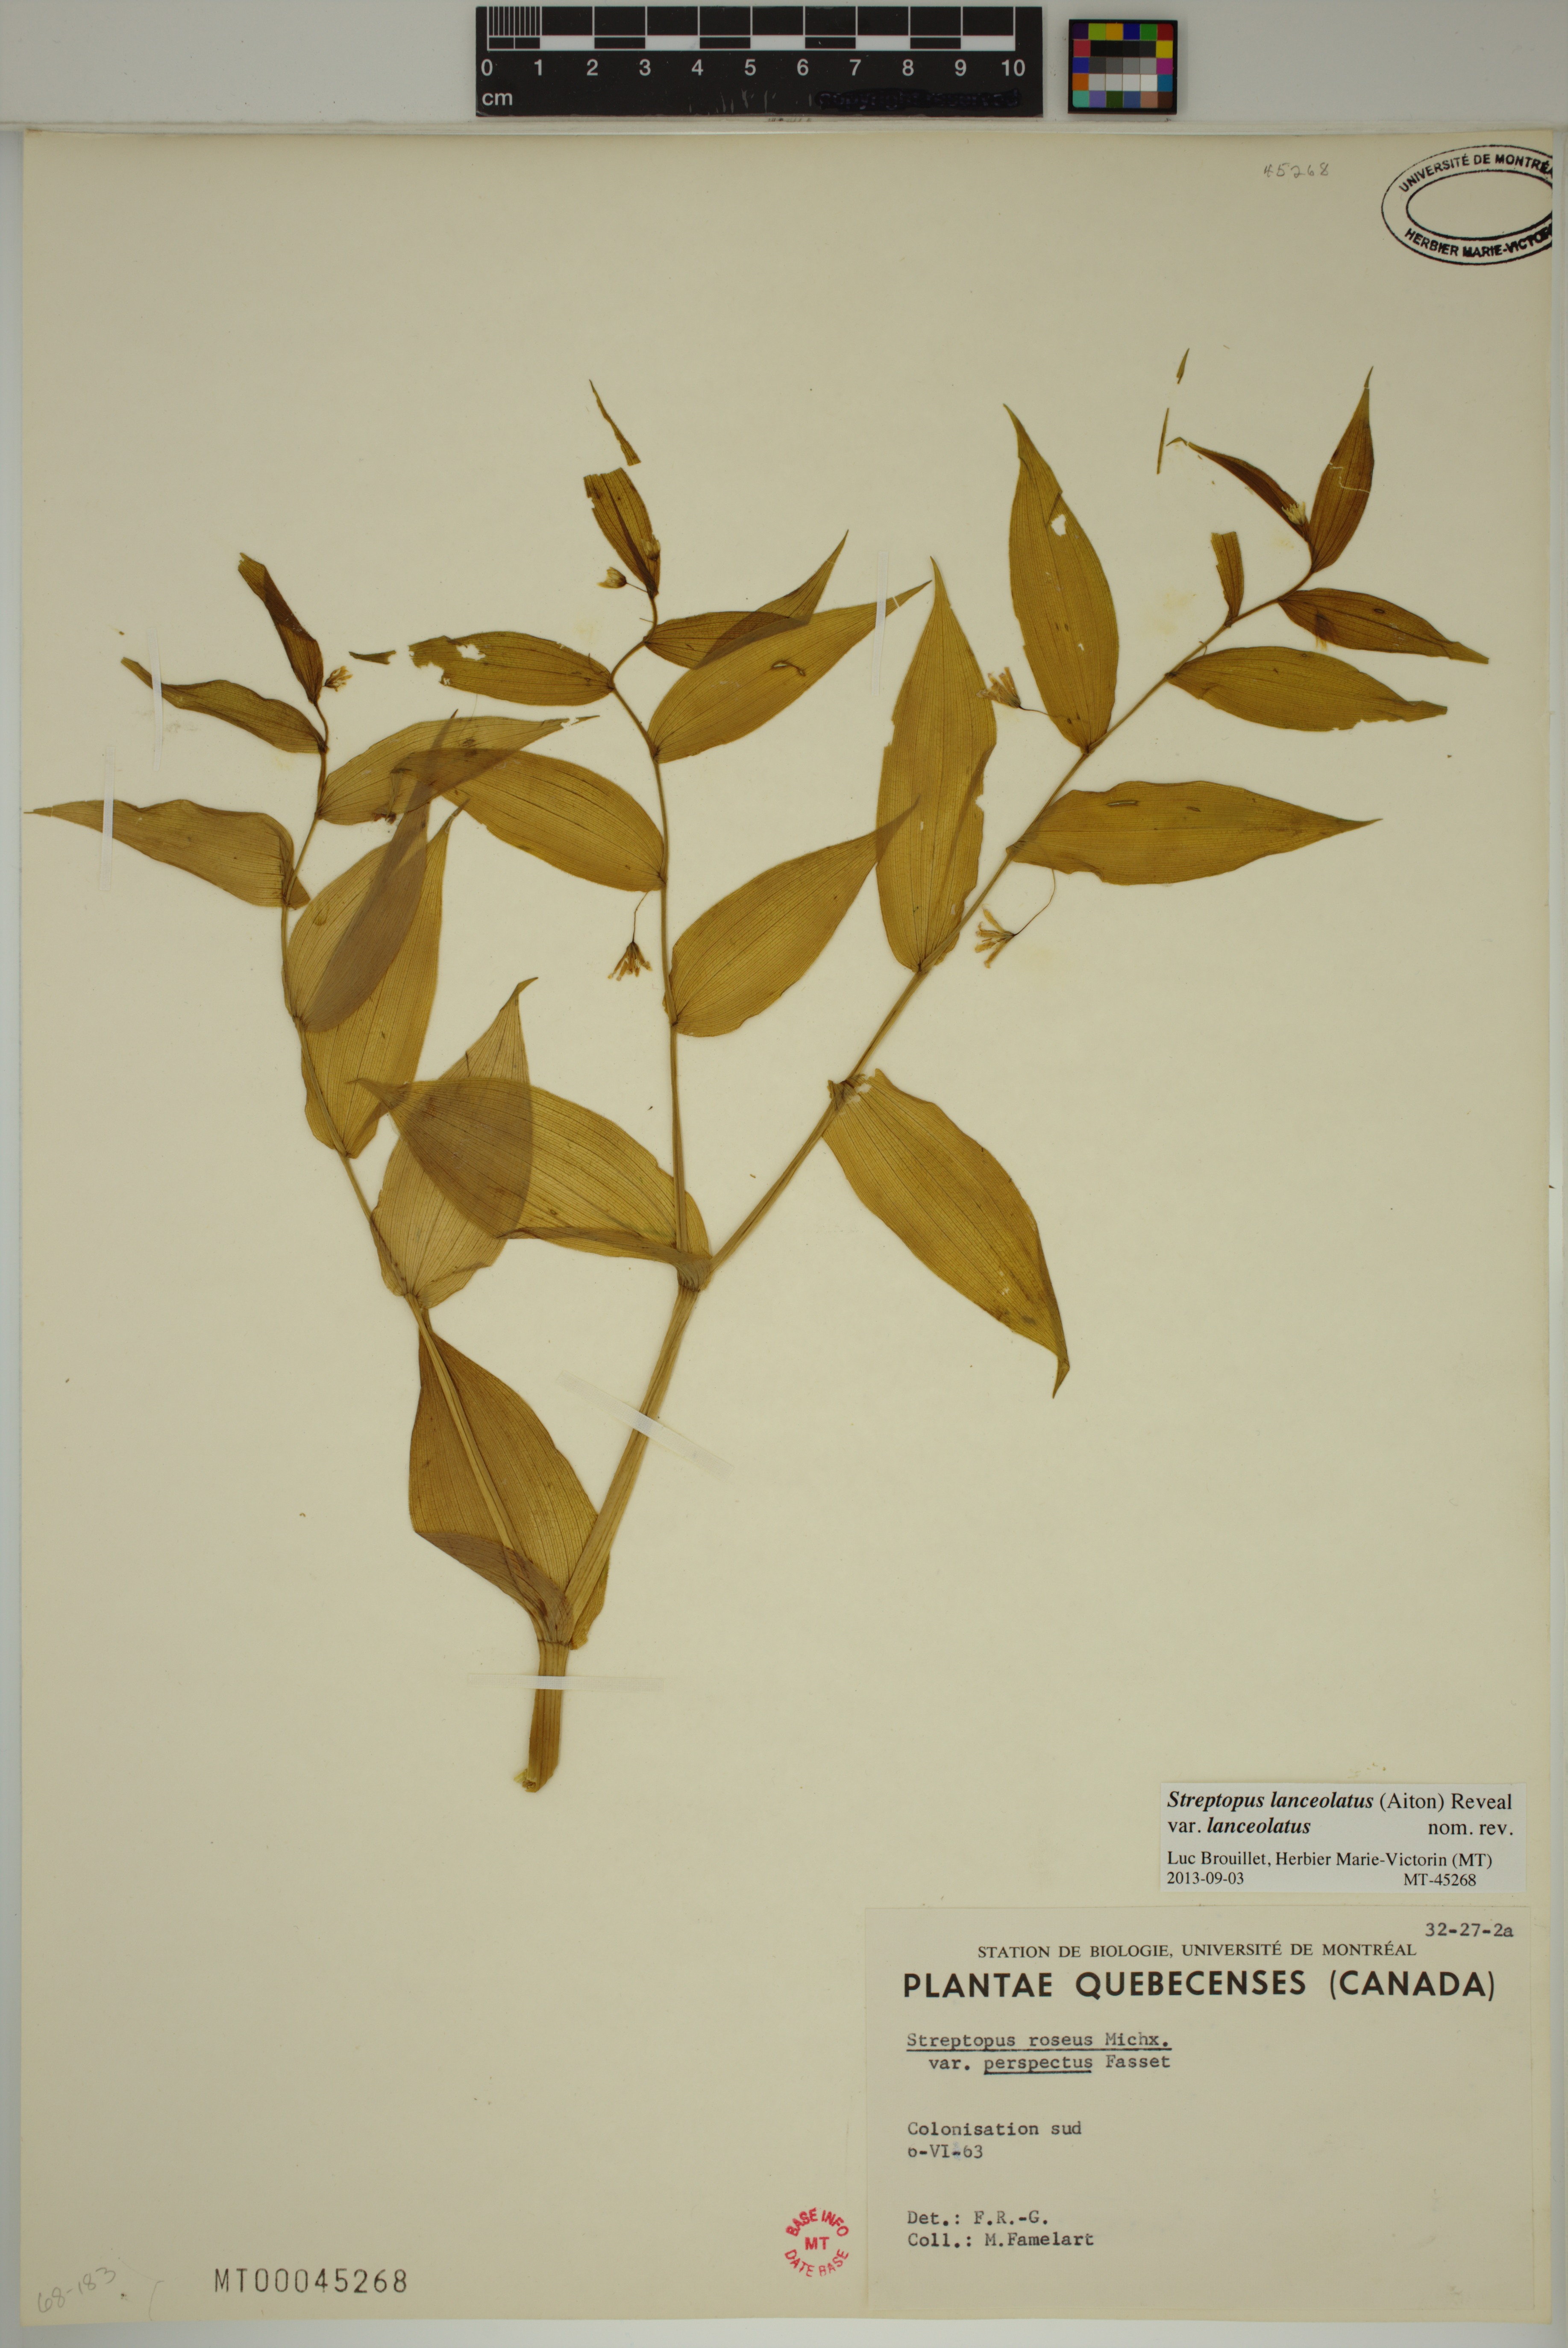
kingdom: Plantae
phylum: Tracheophyta
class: Liliopsida
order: Liliales
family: Liliaceae
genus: Streptopus
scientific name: Streptopus lanceolatus
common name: Rose mandarin
